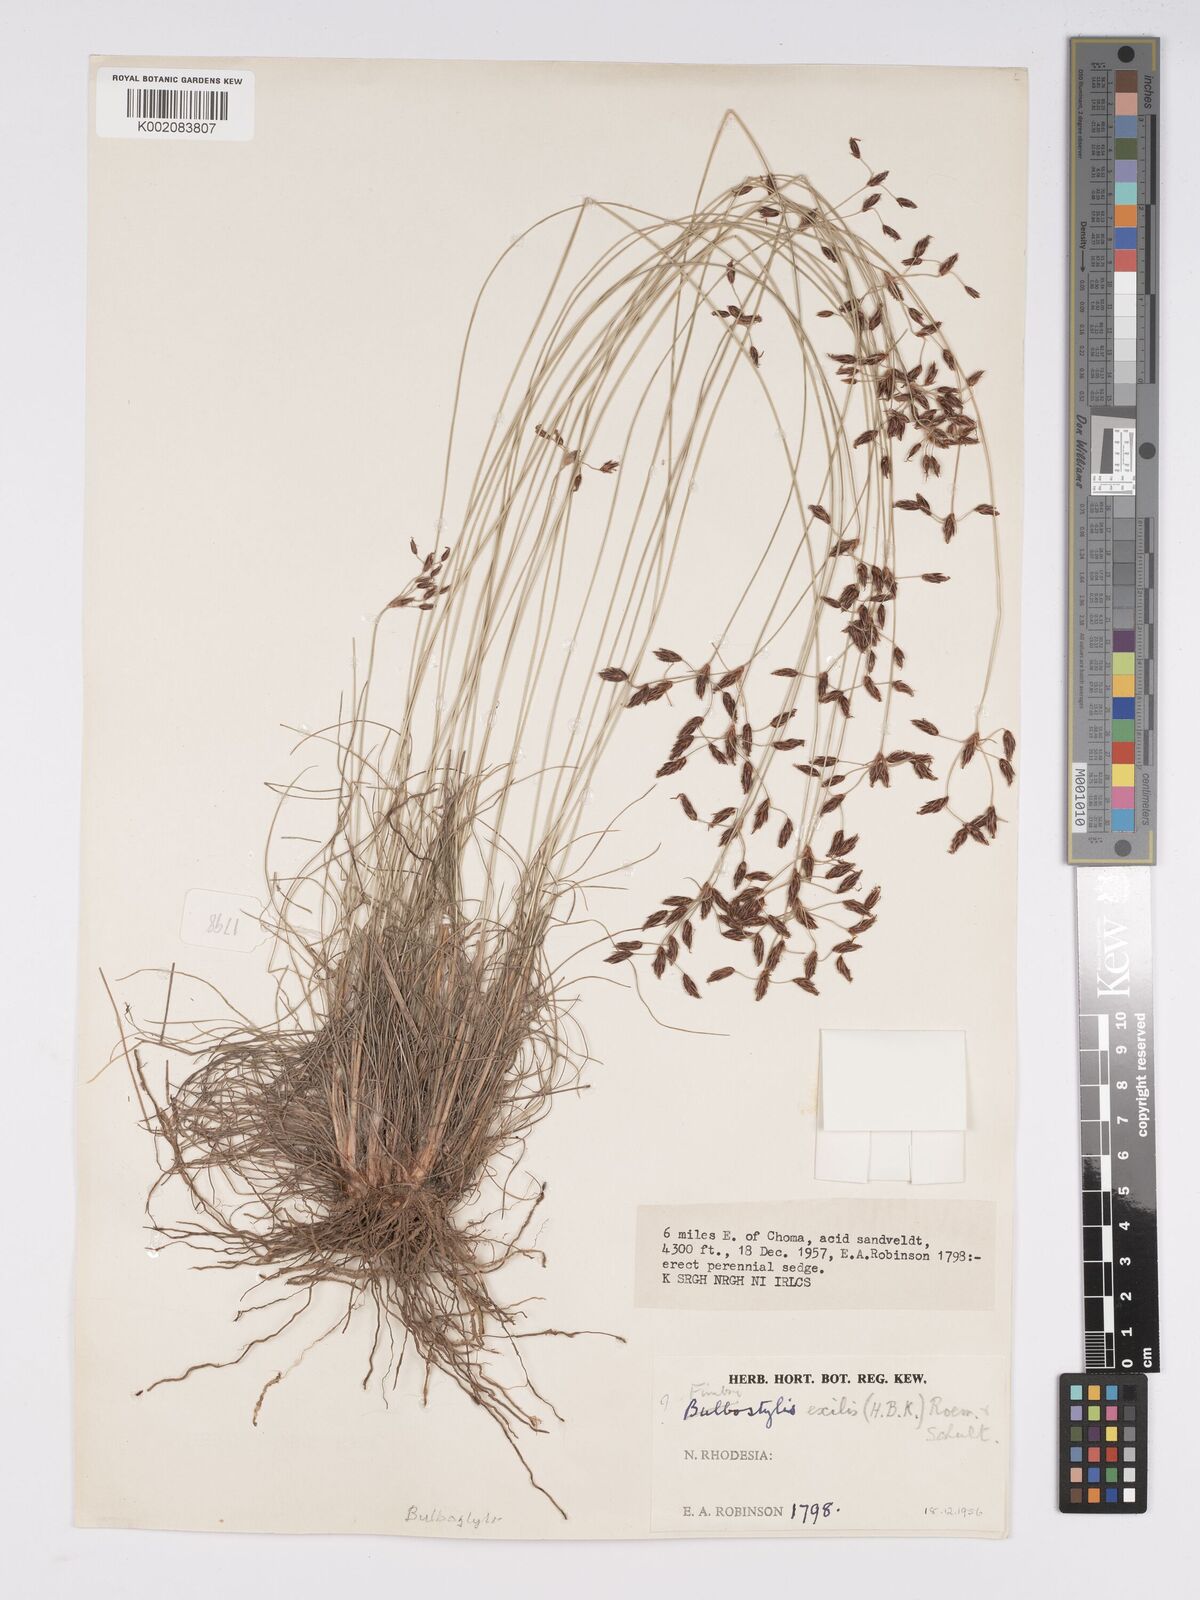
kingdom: Plantae
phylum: Tracheophyta
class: Liliopsida
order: Poales
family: Cyperaceae
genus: Bulbostylis
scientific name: Bulbostylis hispidula
